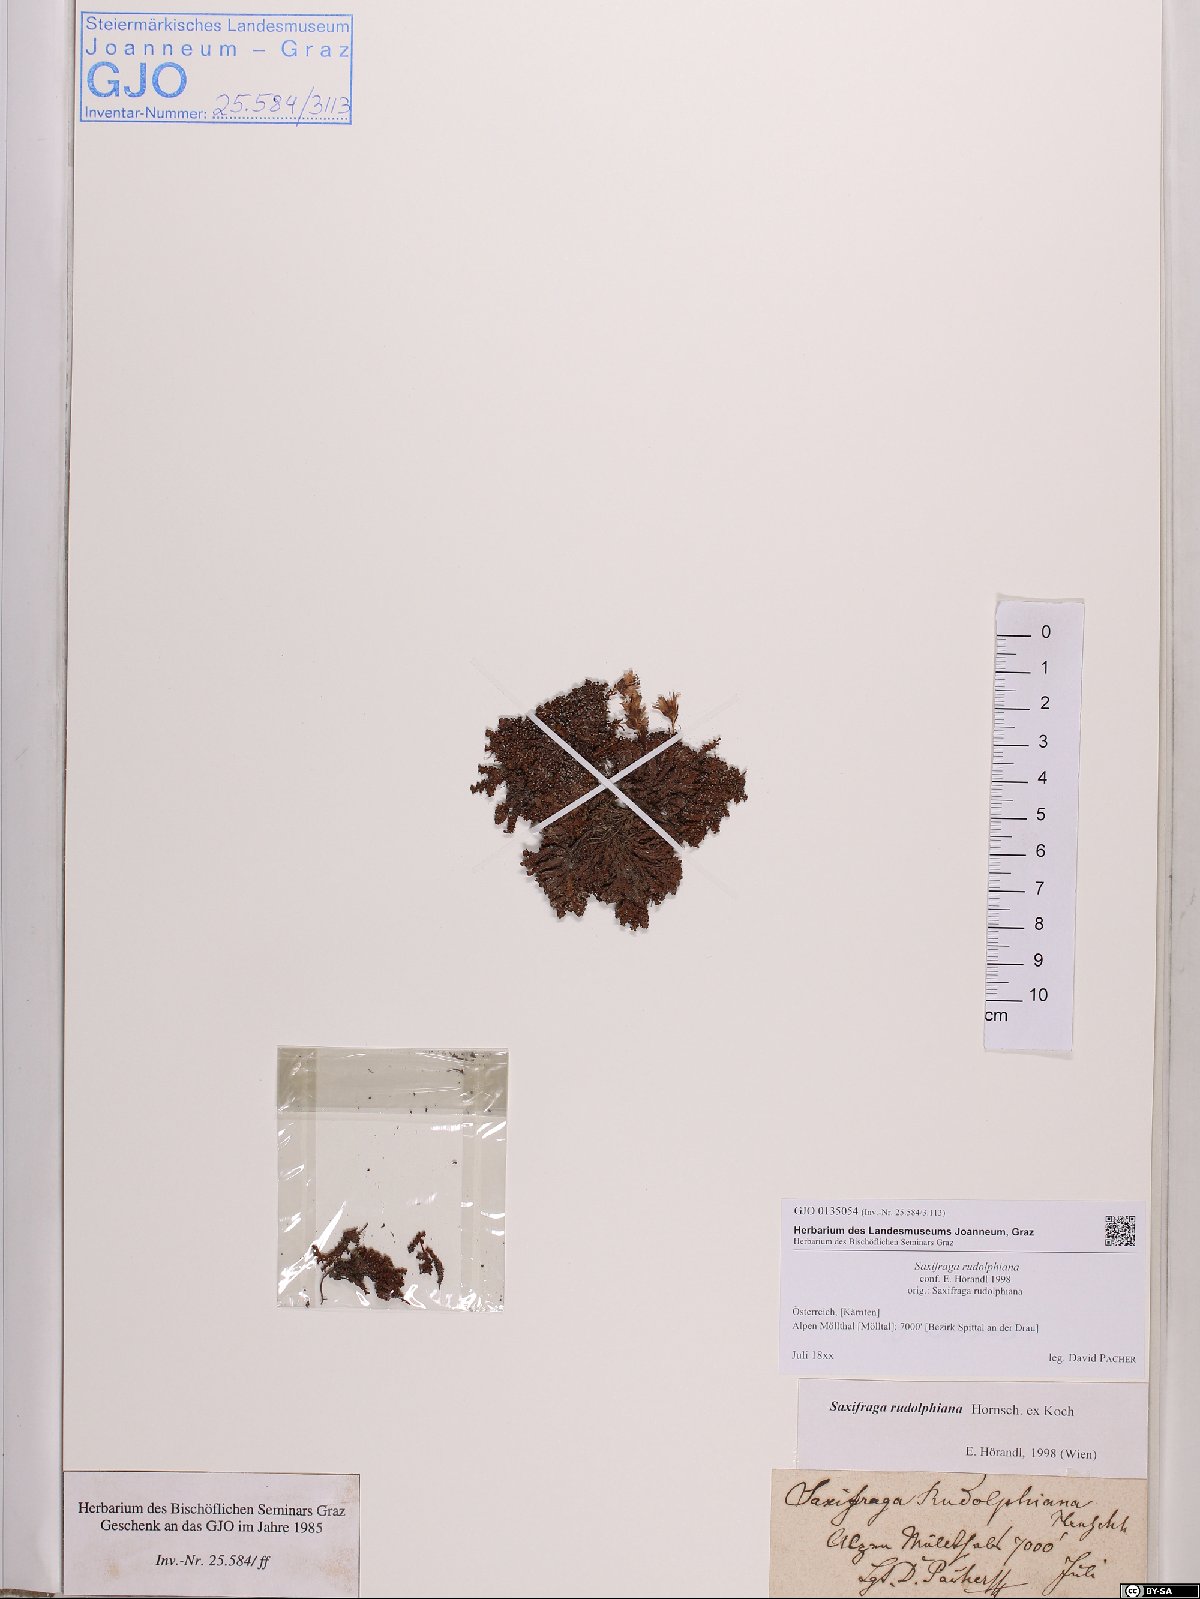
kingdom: Plantae
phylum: Tracheophyta
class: Magnoliopsida
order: Saxifragales
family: Saxifragaceae
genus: Saxifraga
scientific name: Saxifraga oppositifolia
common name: Purple saxifrage
